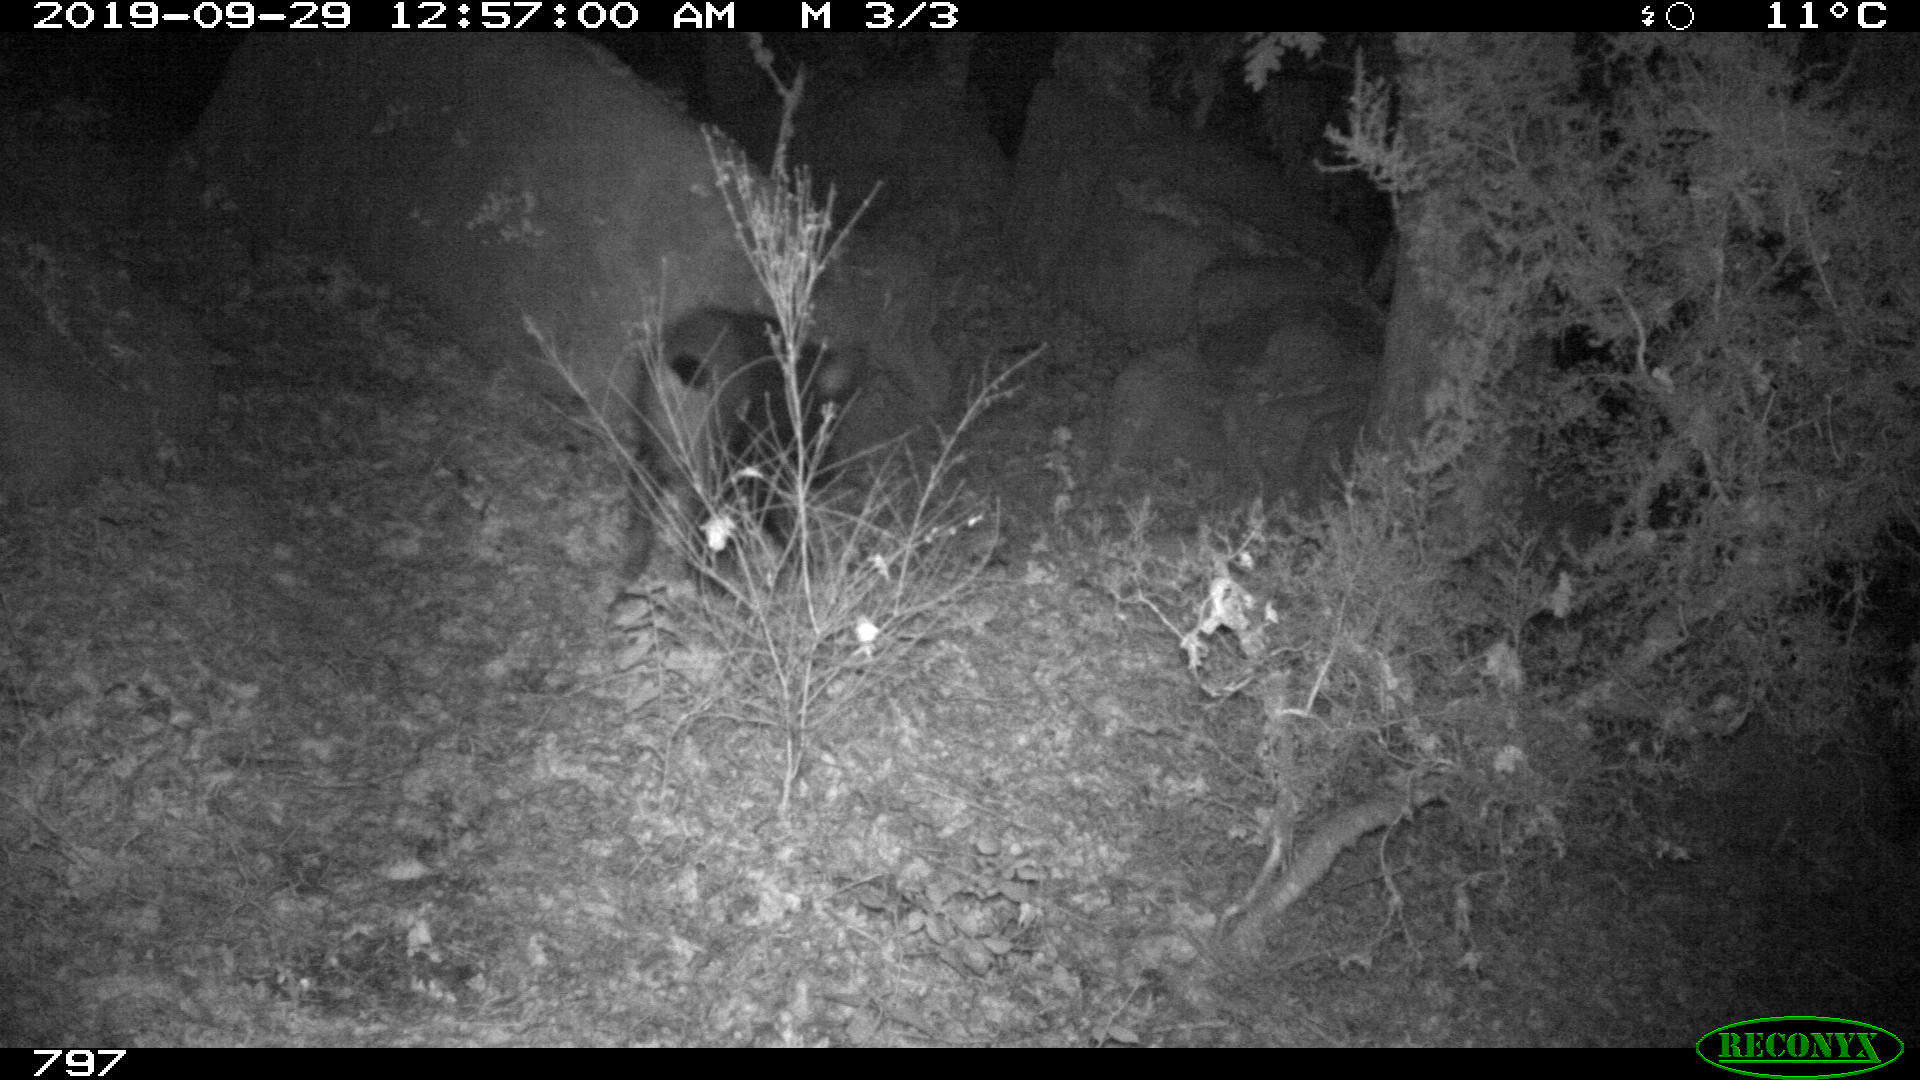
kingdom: Animalia
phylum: Chordata
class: Mammalia
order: Artiodactyla
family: Suidae
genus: Sus
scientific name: Sus scrofa
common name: Wild boar
